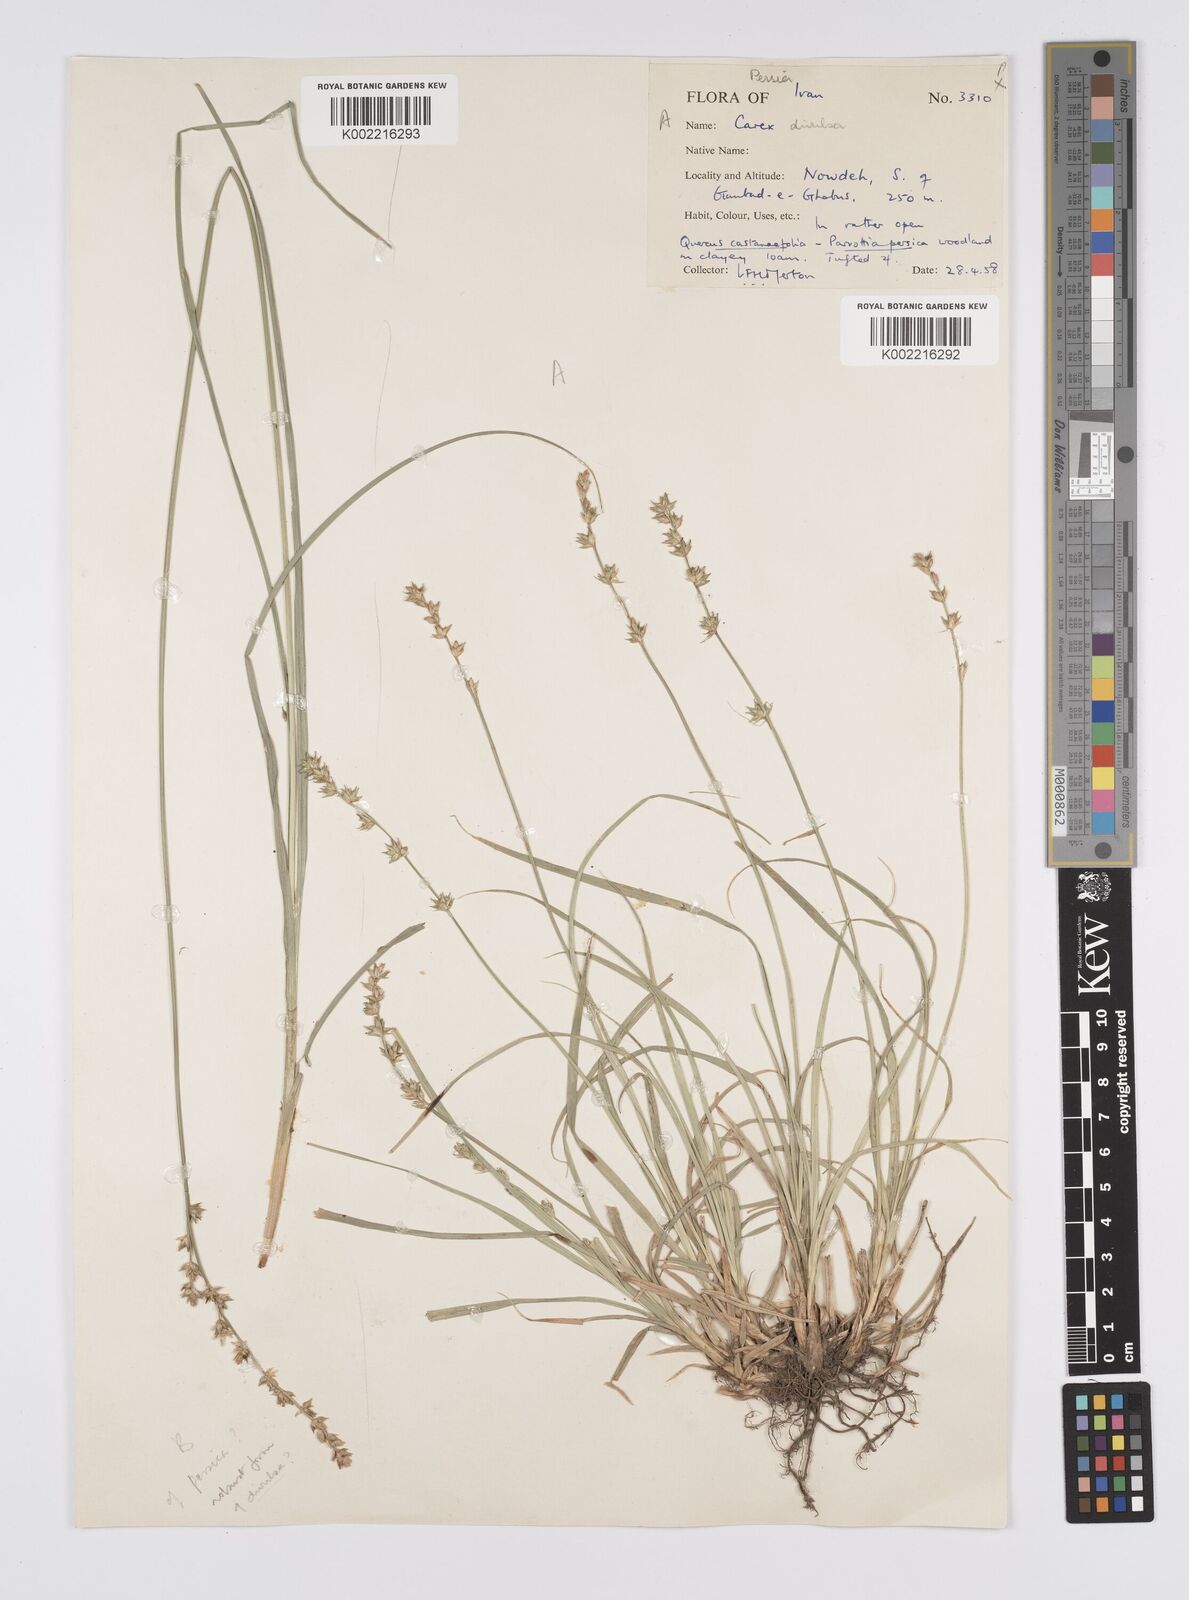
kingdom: Plantae
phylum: Tracheophyta
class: Liliopsida
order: Poales
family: Cyperaceae
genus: Carex
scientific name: Carex divulsa
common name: Grassland sedge
